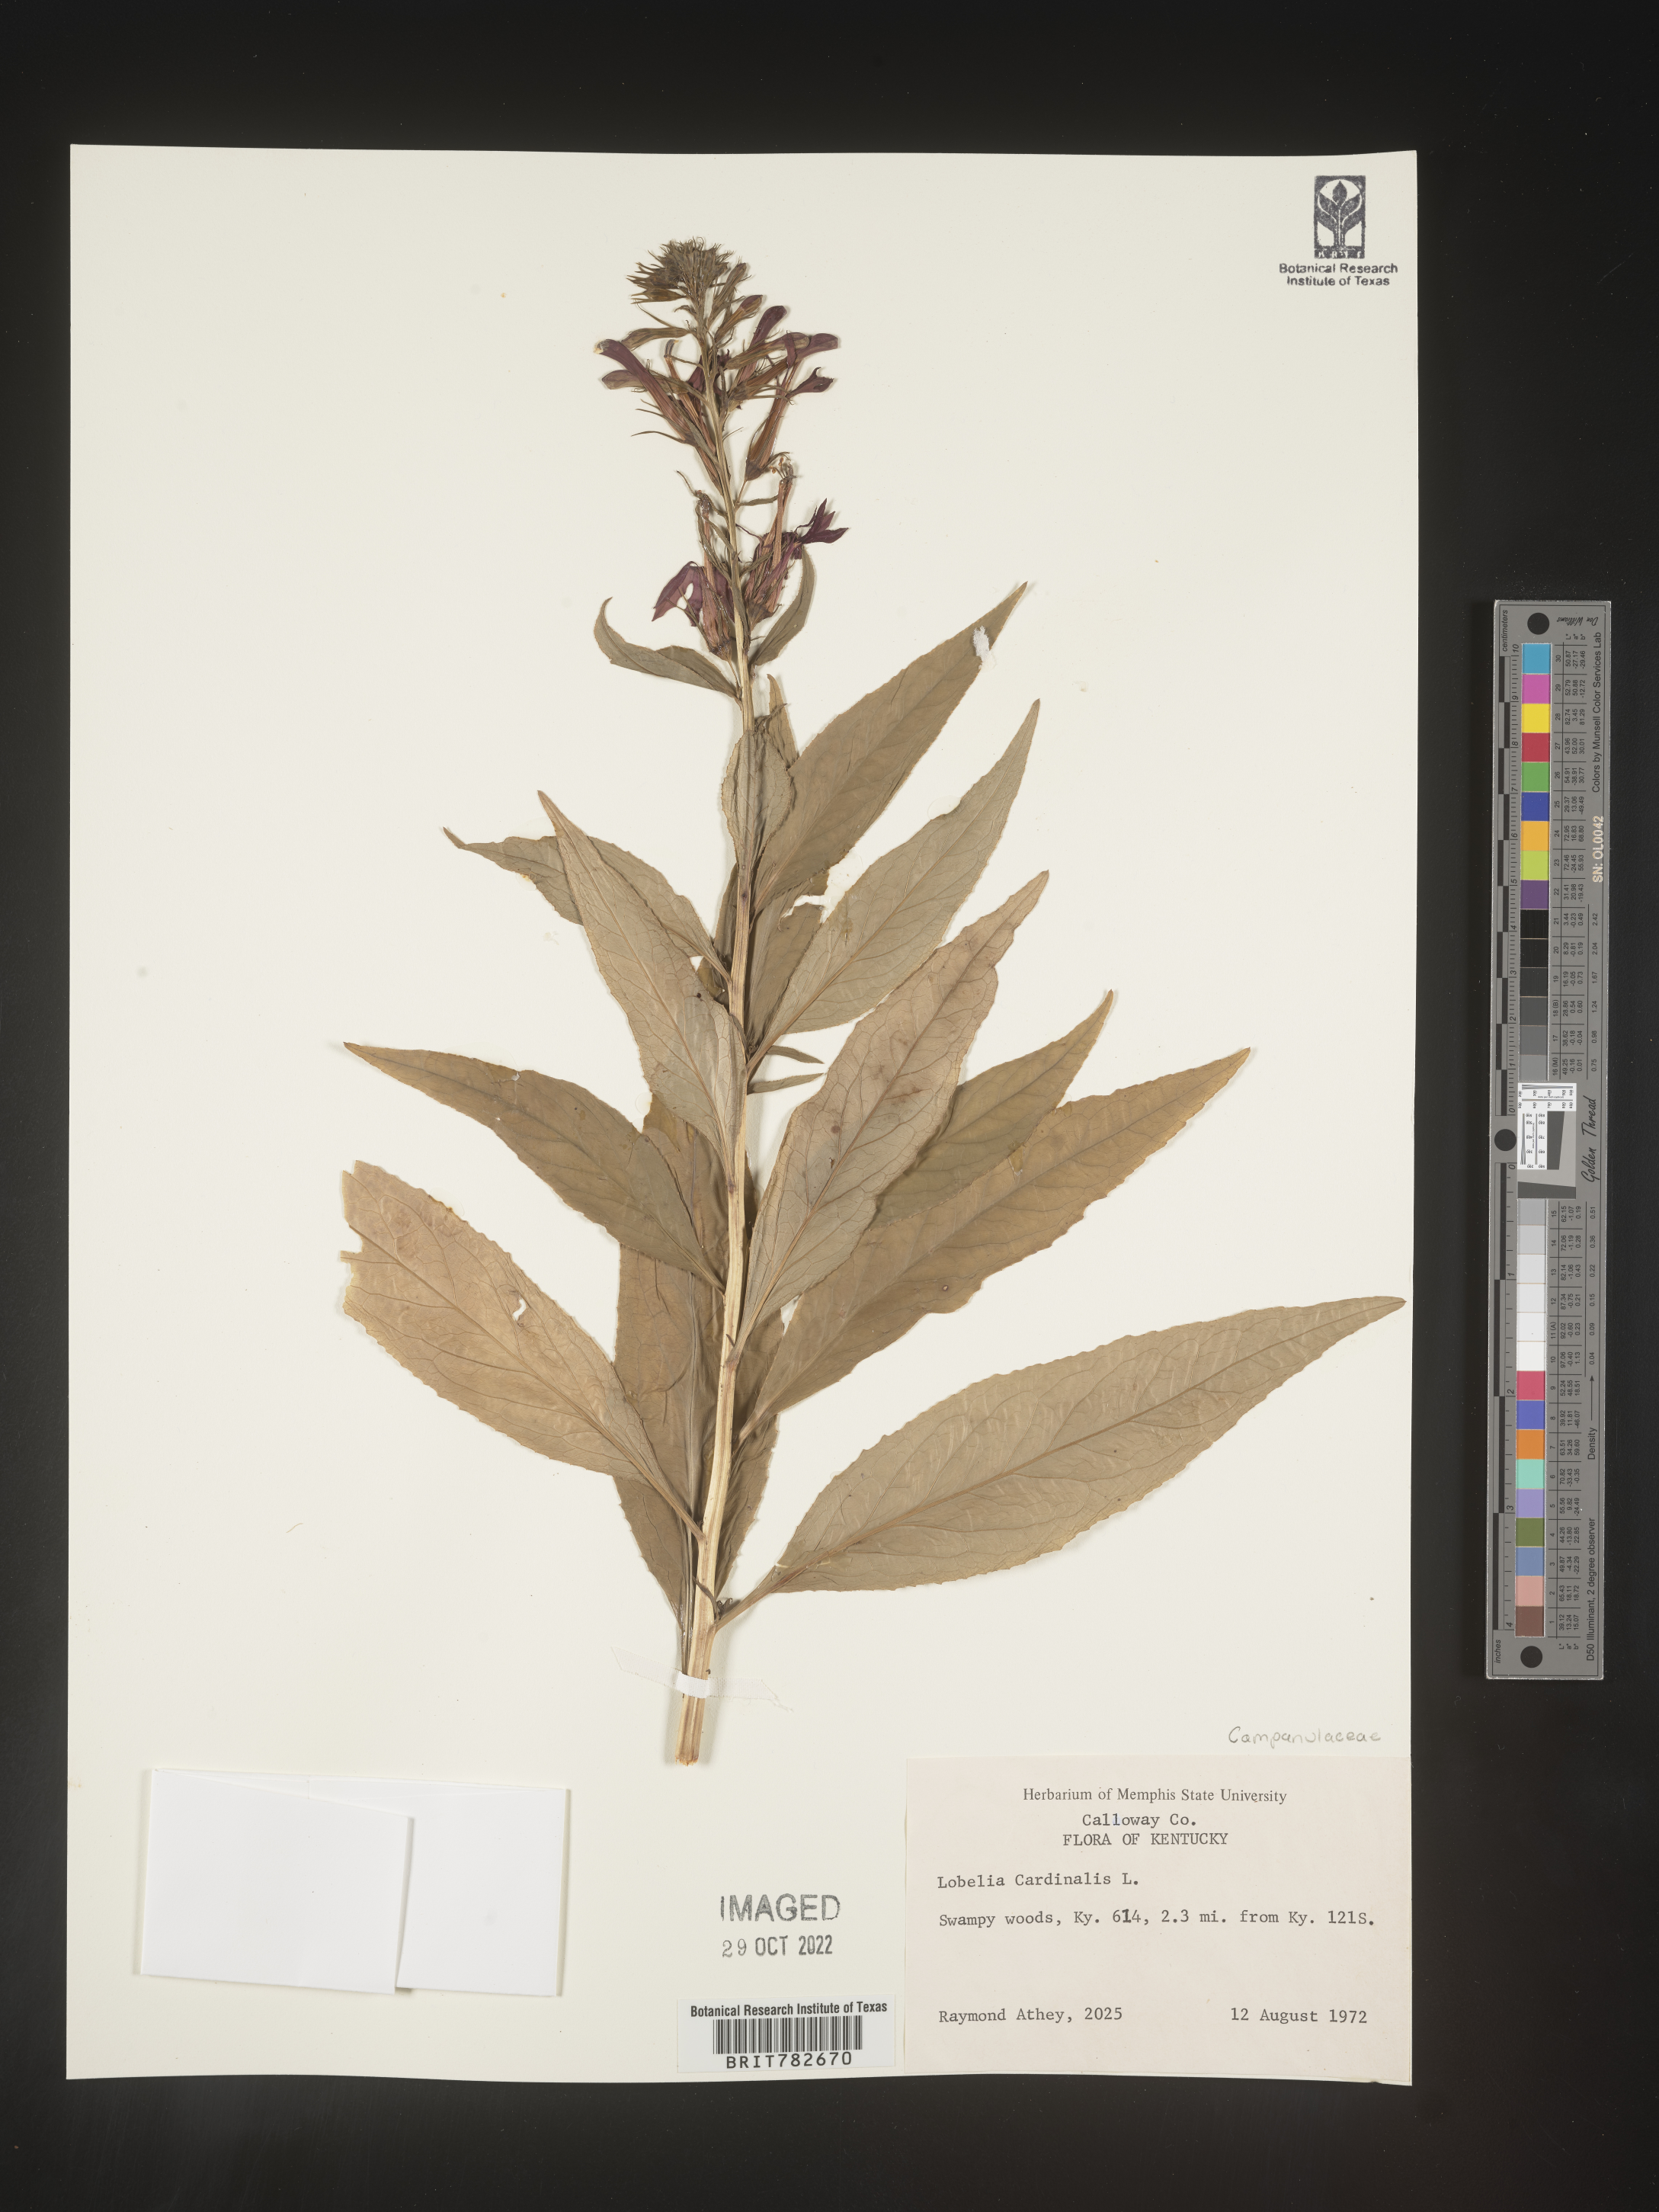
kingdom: Plantae
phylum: Tracheophyta
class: Magnoliopsida
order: Asterales
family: Campanulaceae
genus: Lobelia
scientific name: Lobelia cardinalis
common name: Cardinal flower
